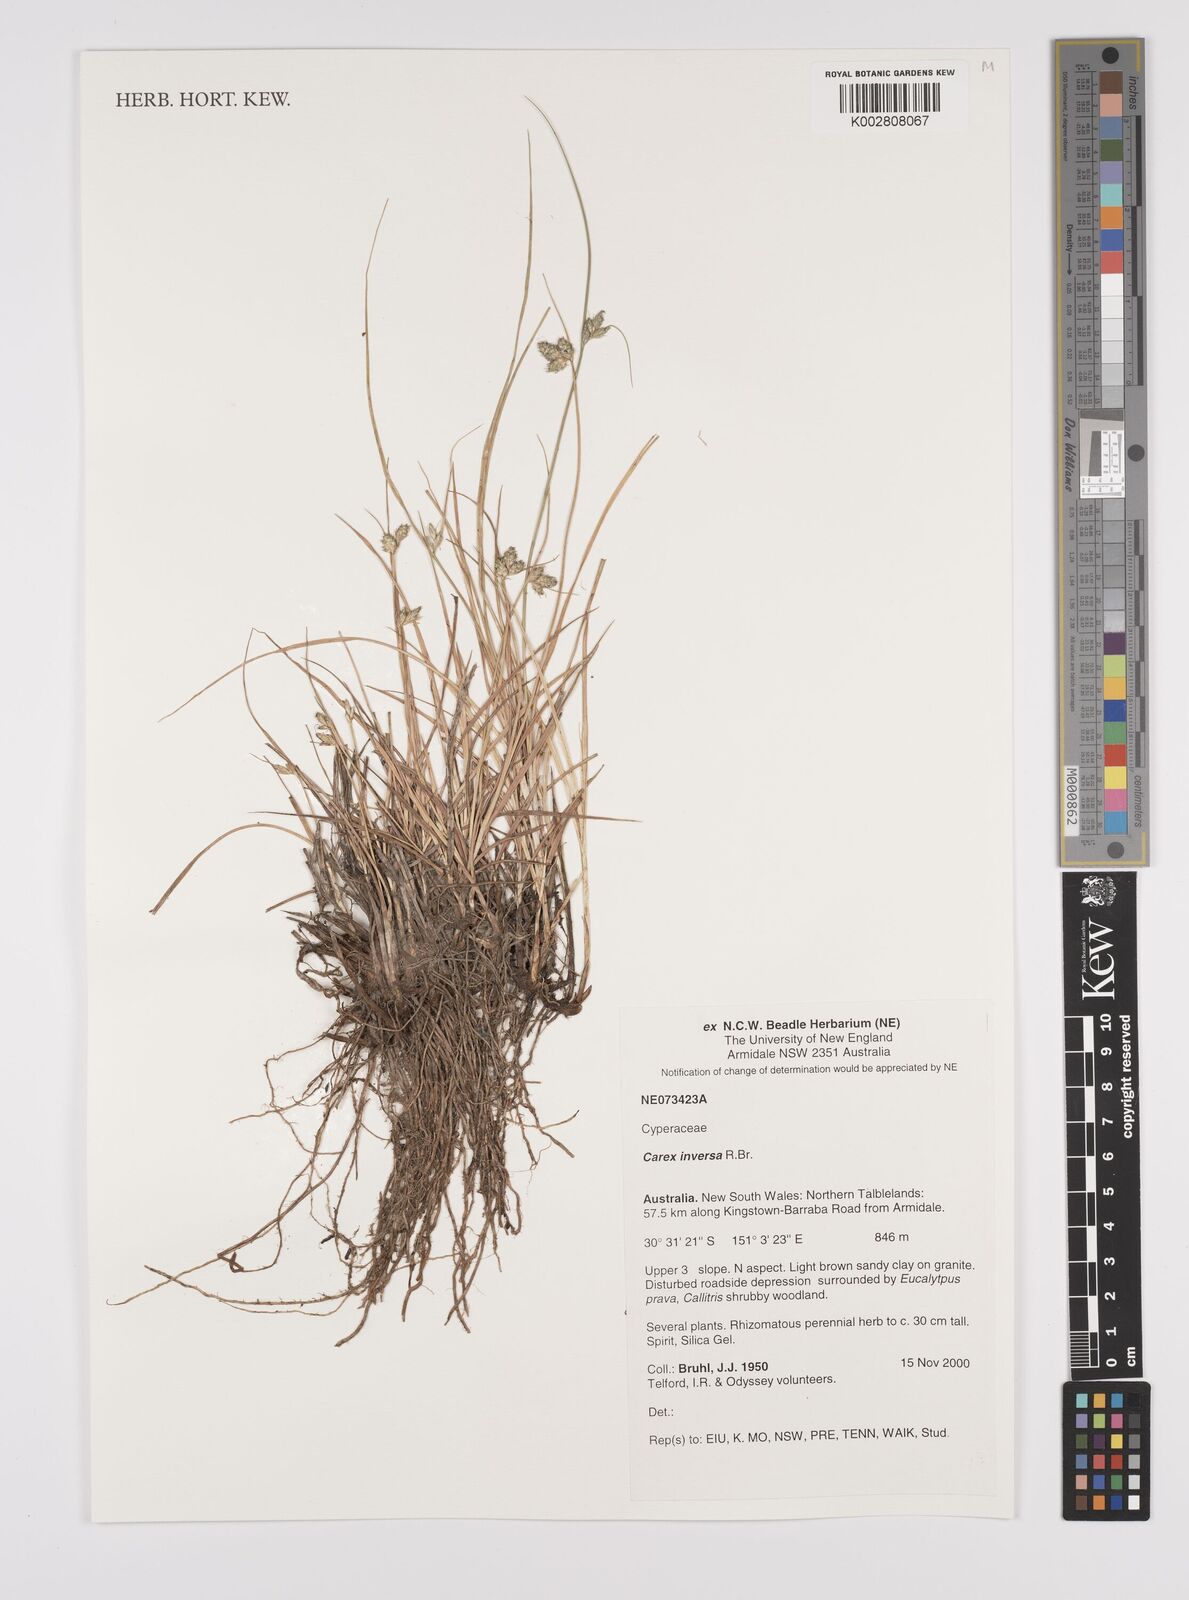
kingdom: Plantae
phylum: Tracheophyta
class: Liliopsida
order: Poales
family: Cyperaceae
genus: Carex
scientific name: Carex inversa
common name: Knob sedge
